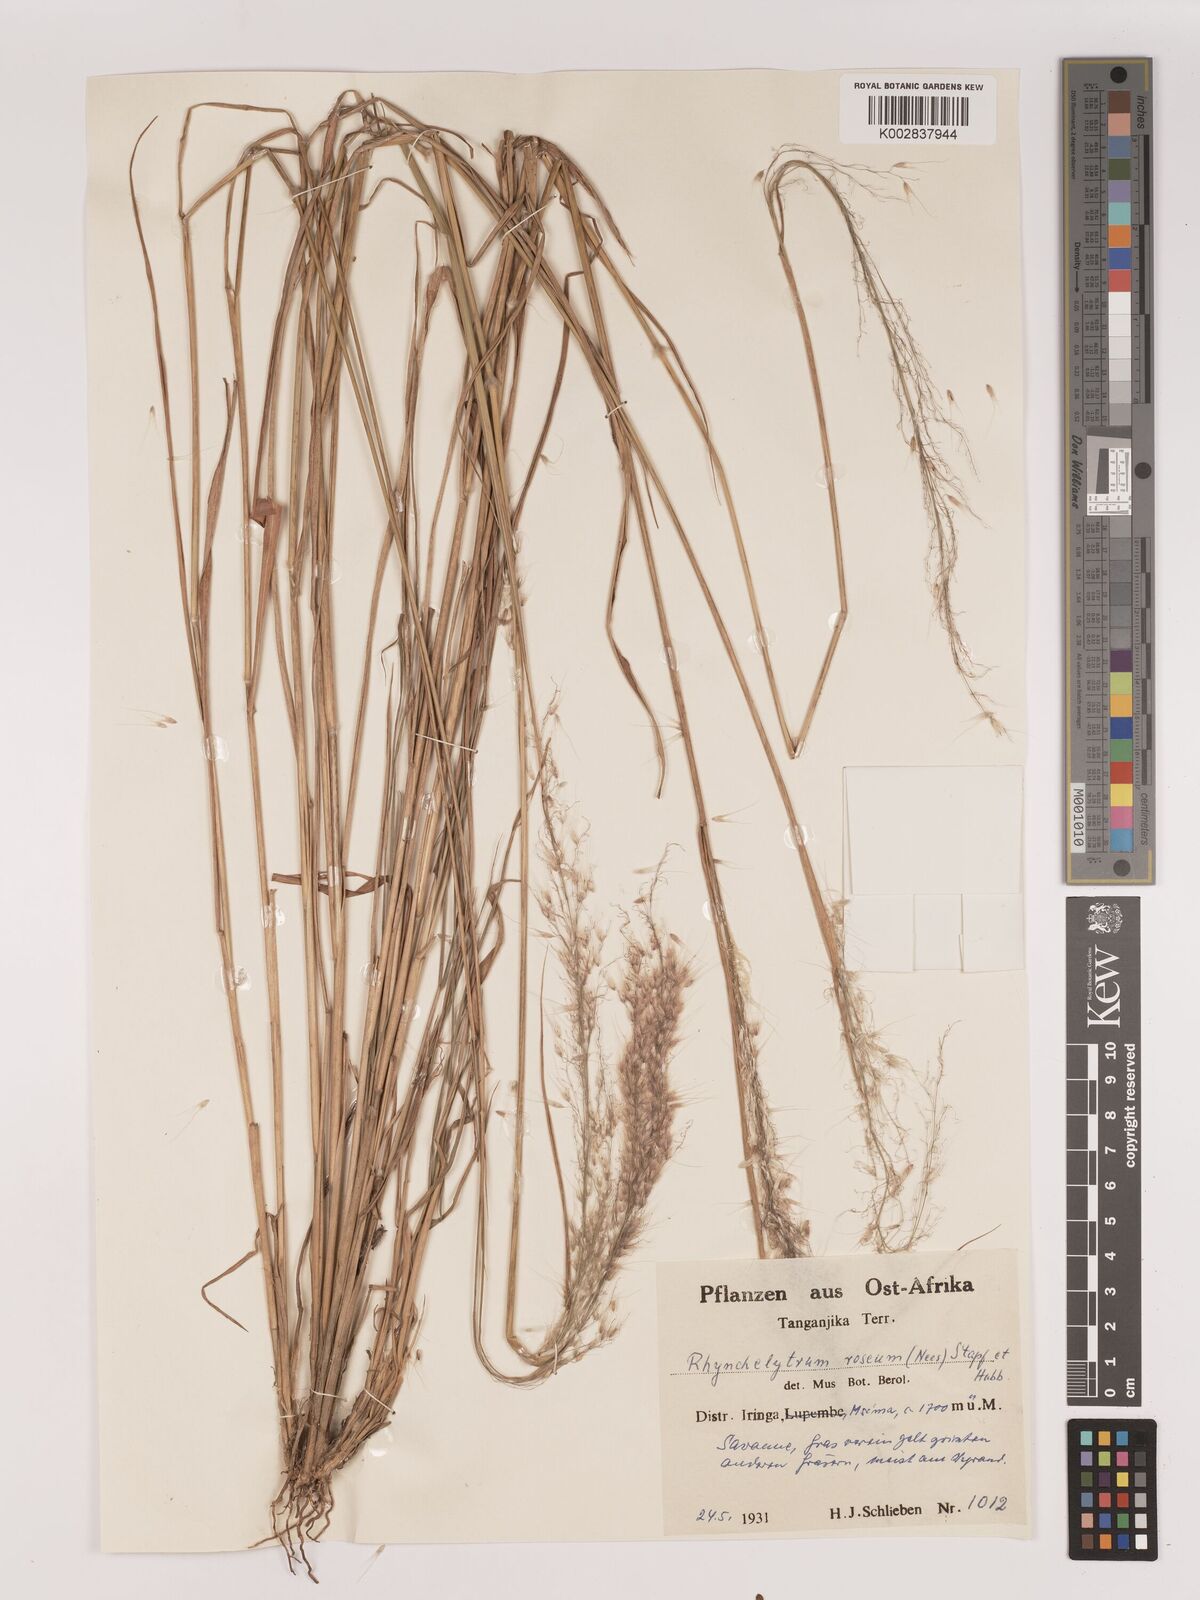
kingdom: Plantae
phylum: Tracheophyta
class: Liliopsida
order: Poales
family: Poaceae
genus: Melinis
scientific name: Melinis ambigua
